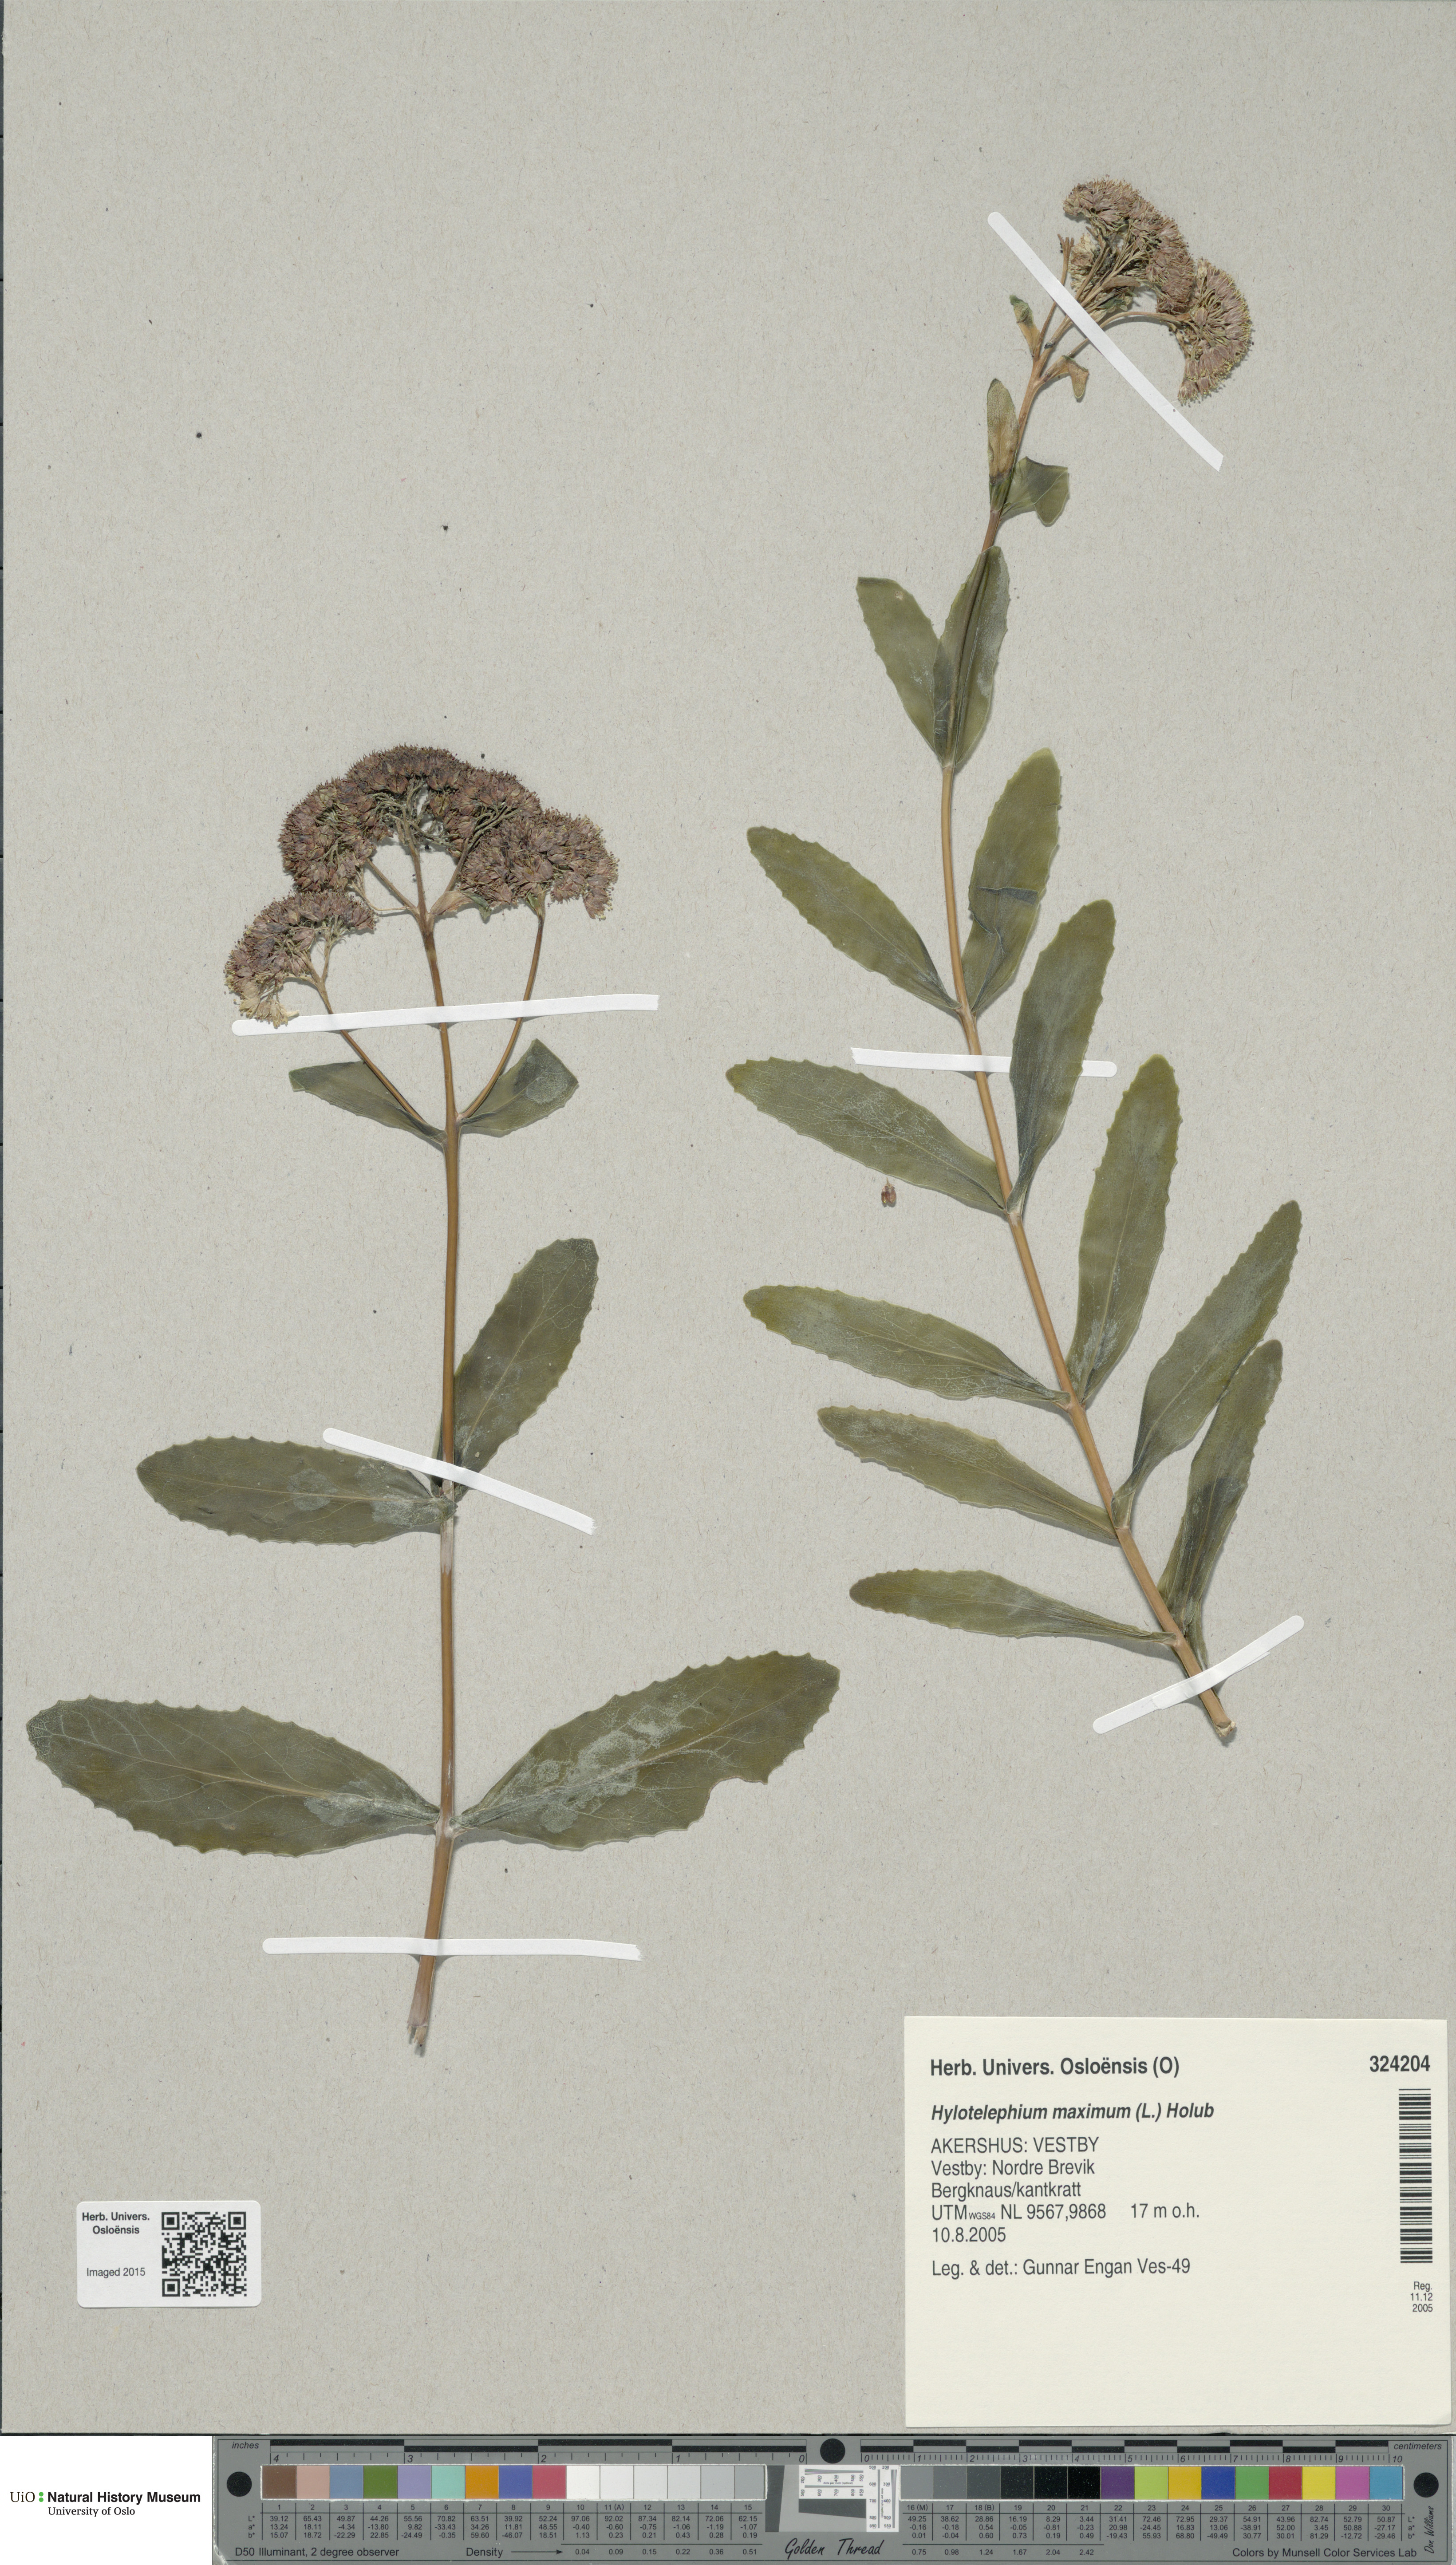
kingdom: Plantae
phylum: Tracheophyta
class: Magnoliopsida
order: Saxifragales
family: Crassulaceae
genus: Hylotelephium
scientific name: Hylotelephium maximum
